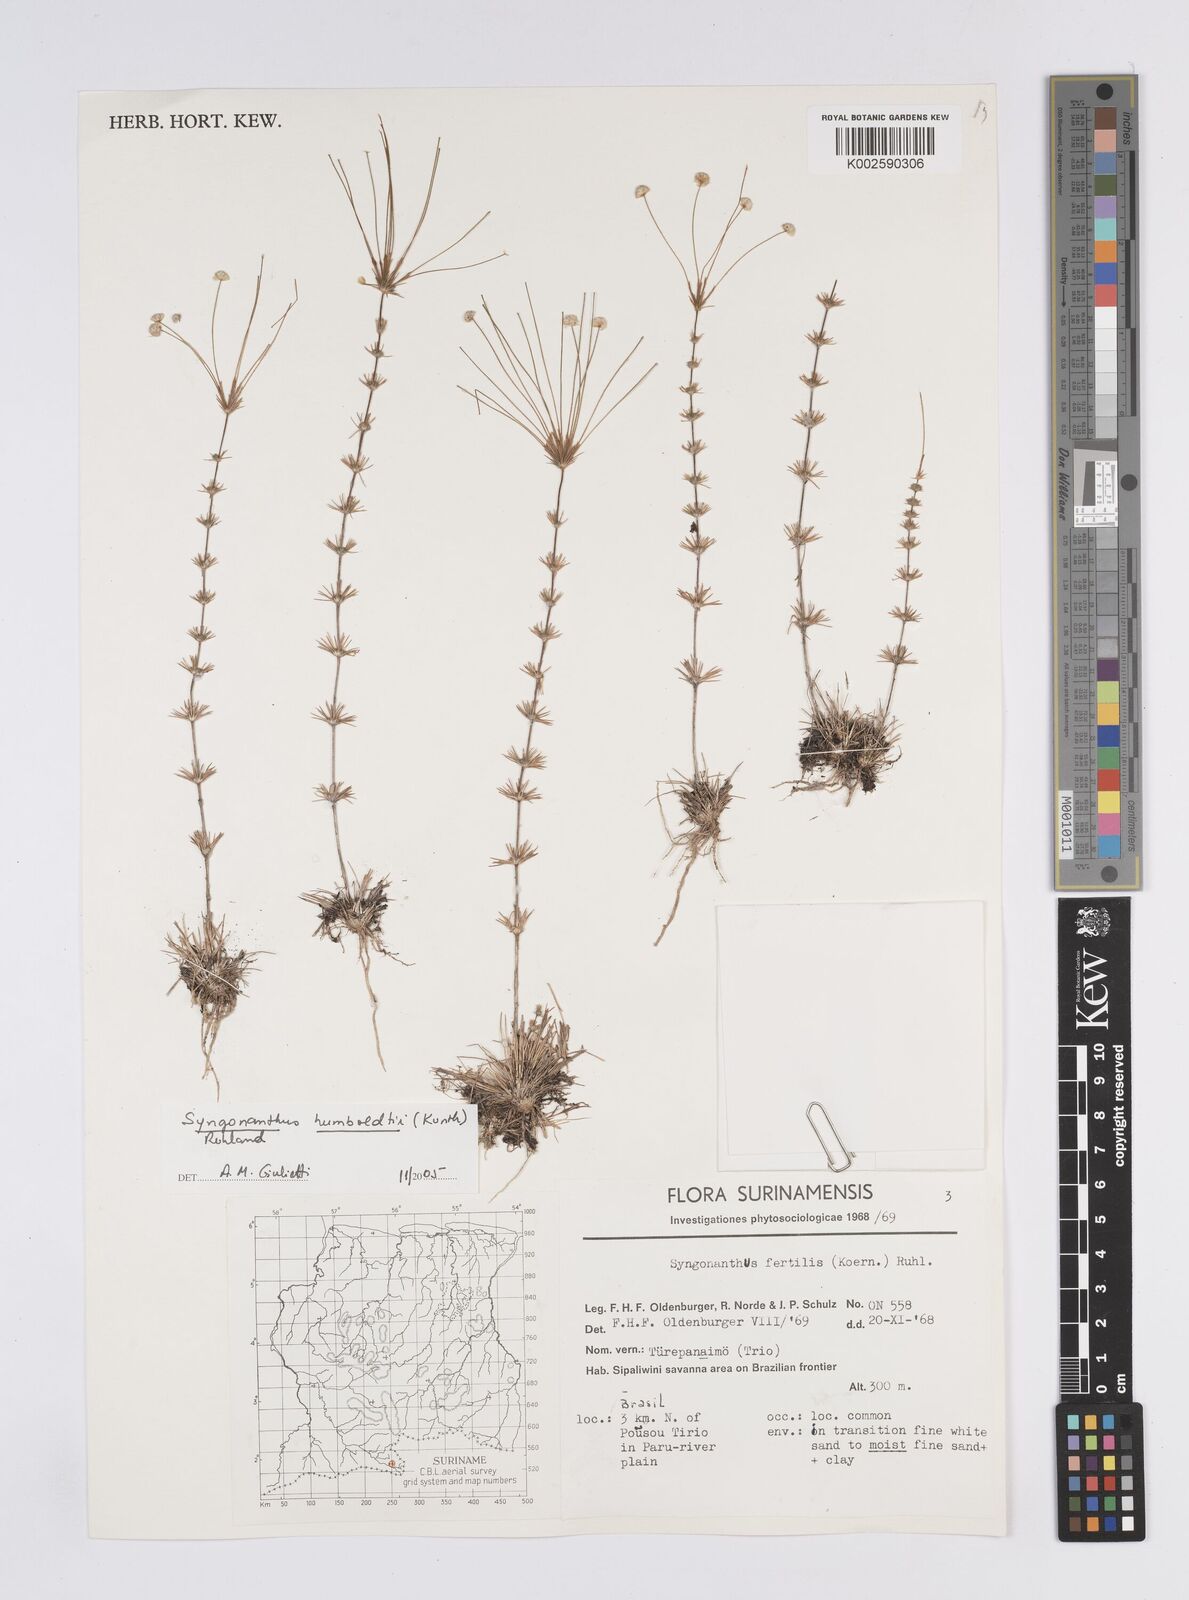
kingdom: Plantae
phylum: Tracheophyta
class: Liliopsida
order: Poales
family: Eriocaulaceae
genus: Syngonanthus
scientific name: Syngonanthus humboldtii
